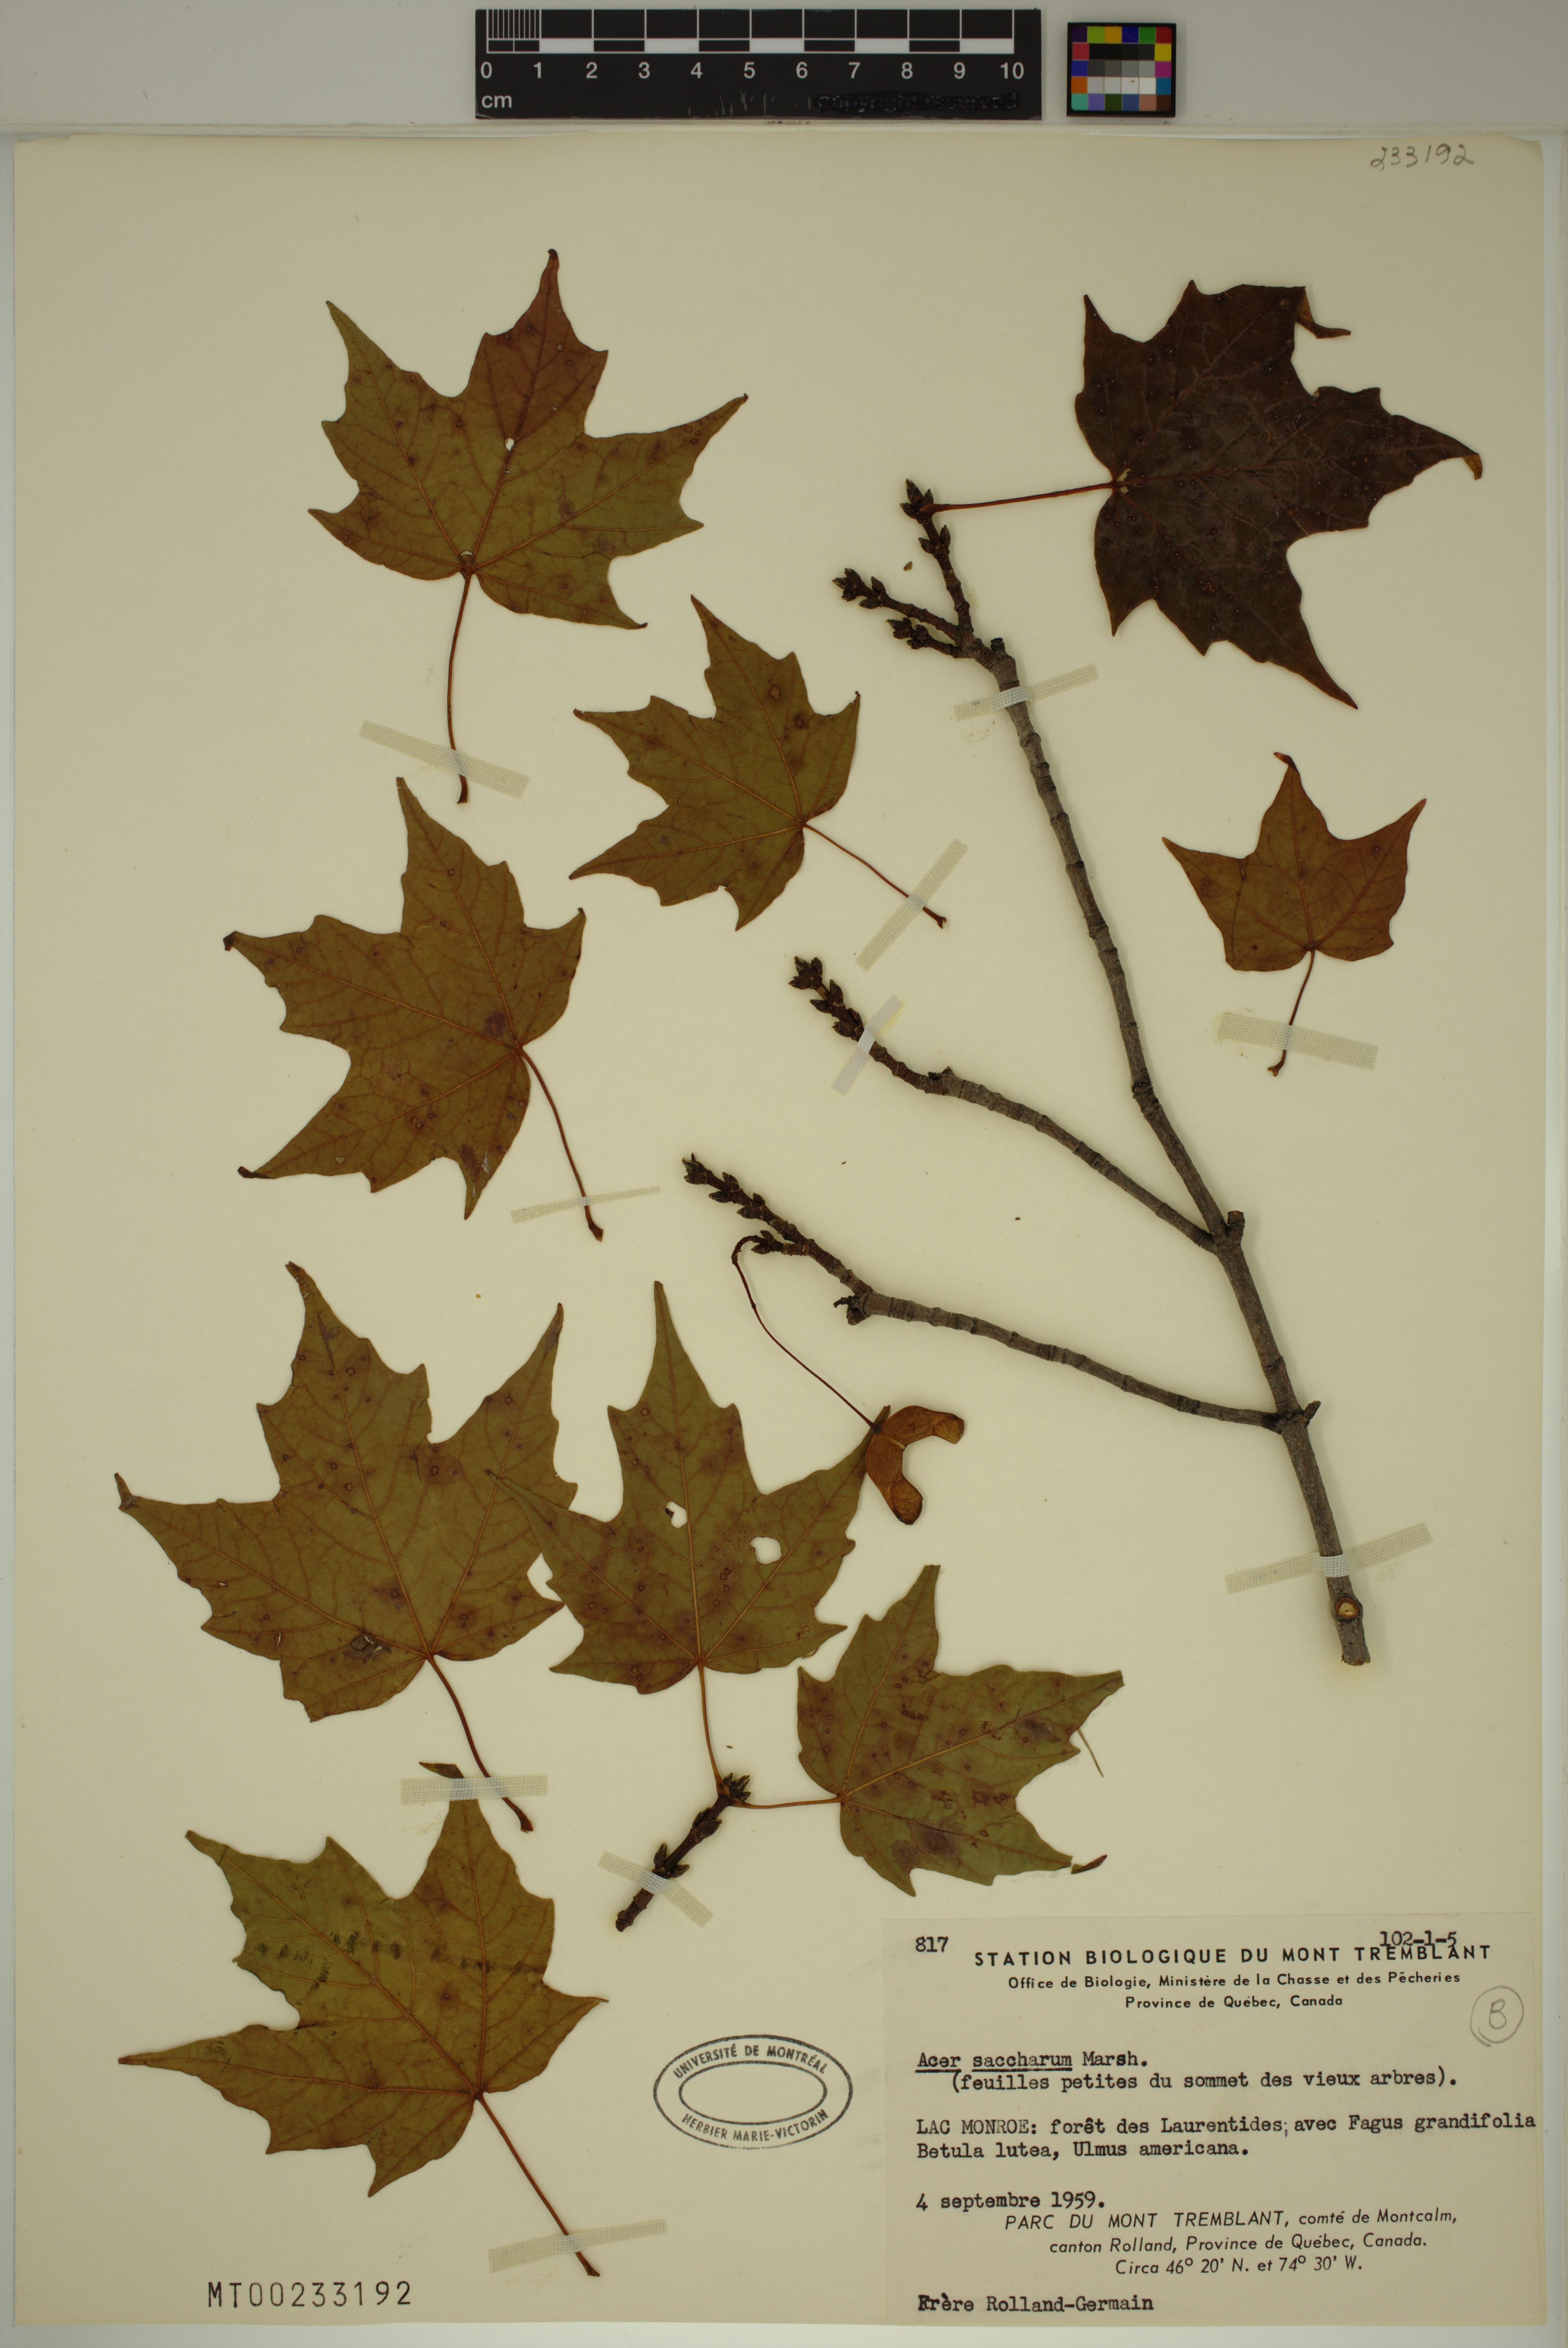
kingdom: Plantae
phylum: Tracheophyta
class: Magnoliopsida
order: Sapindales
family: Sapindaceae
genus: Acer
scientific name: Acer saccharum
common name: Sugar maple
